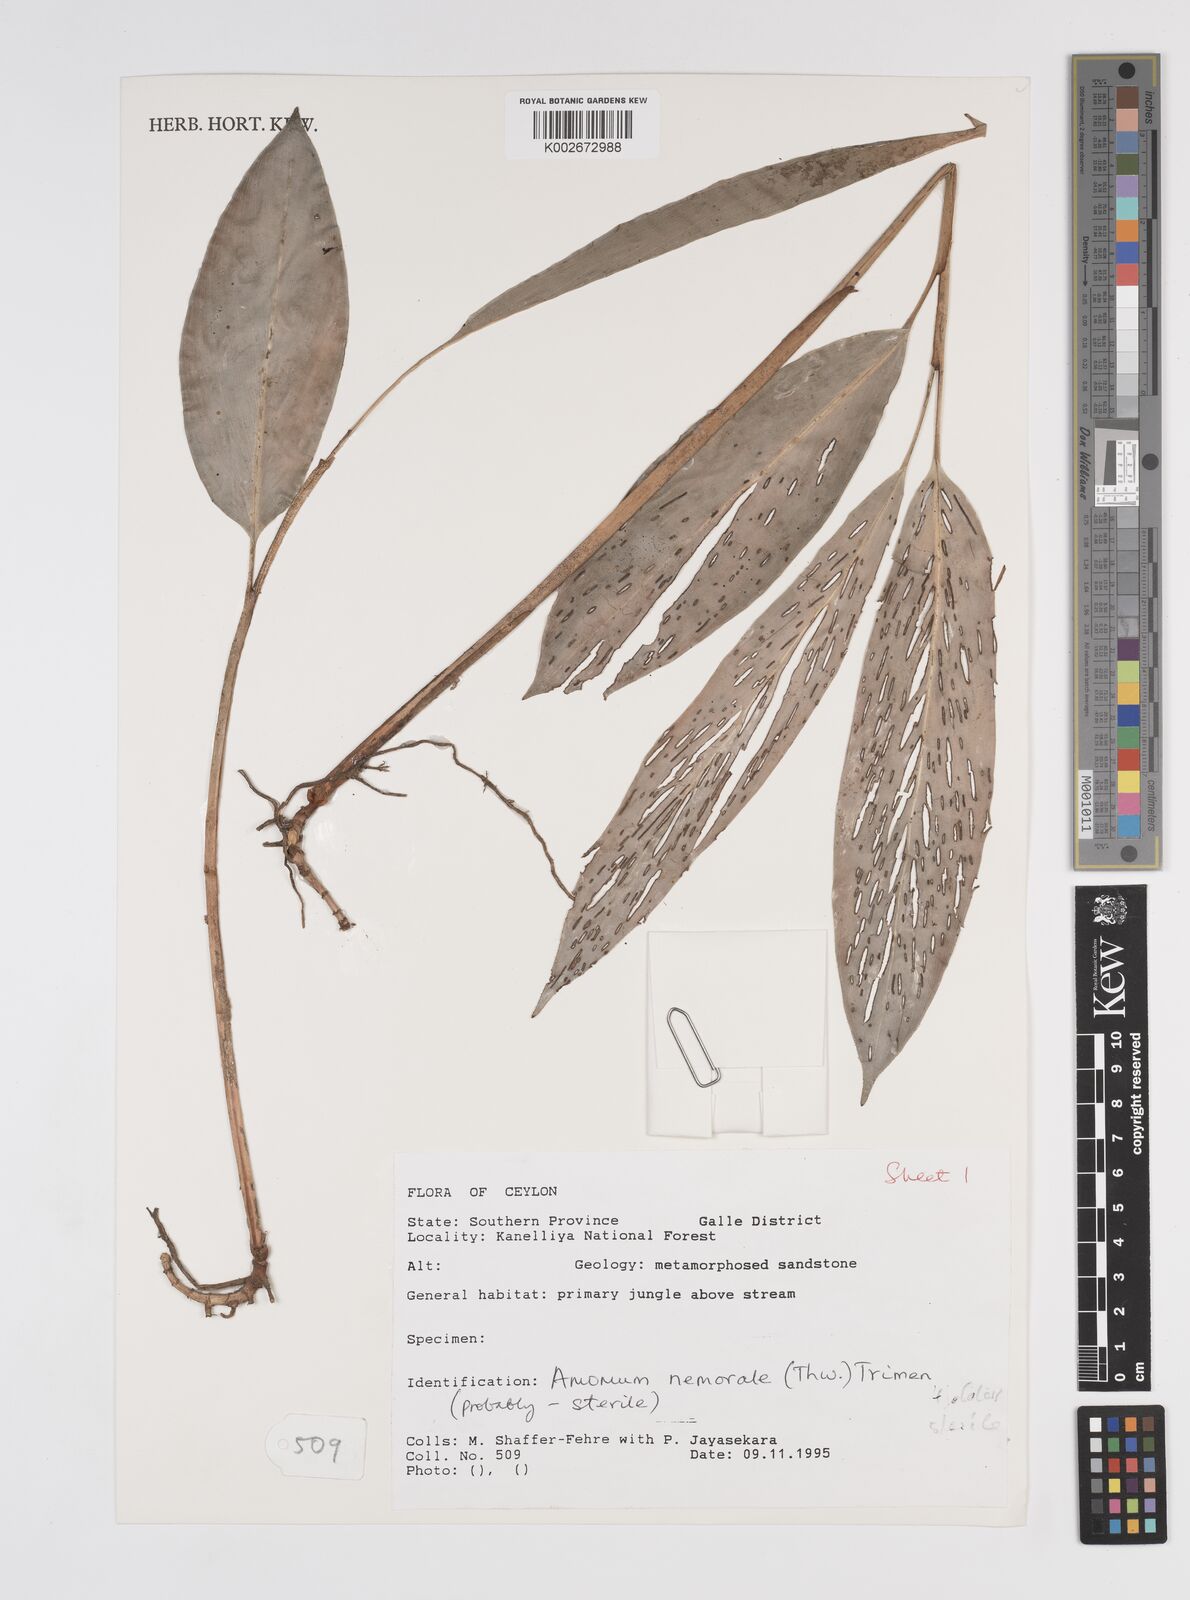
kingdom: Plantae
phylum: Tracheophyta
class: Liliopsida
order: Zingiberales
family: Zingiberaceae
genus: Amomum
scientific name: Amomum nemorale
